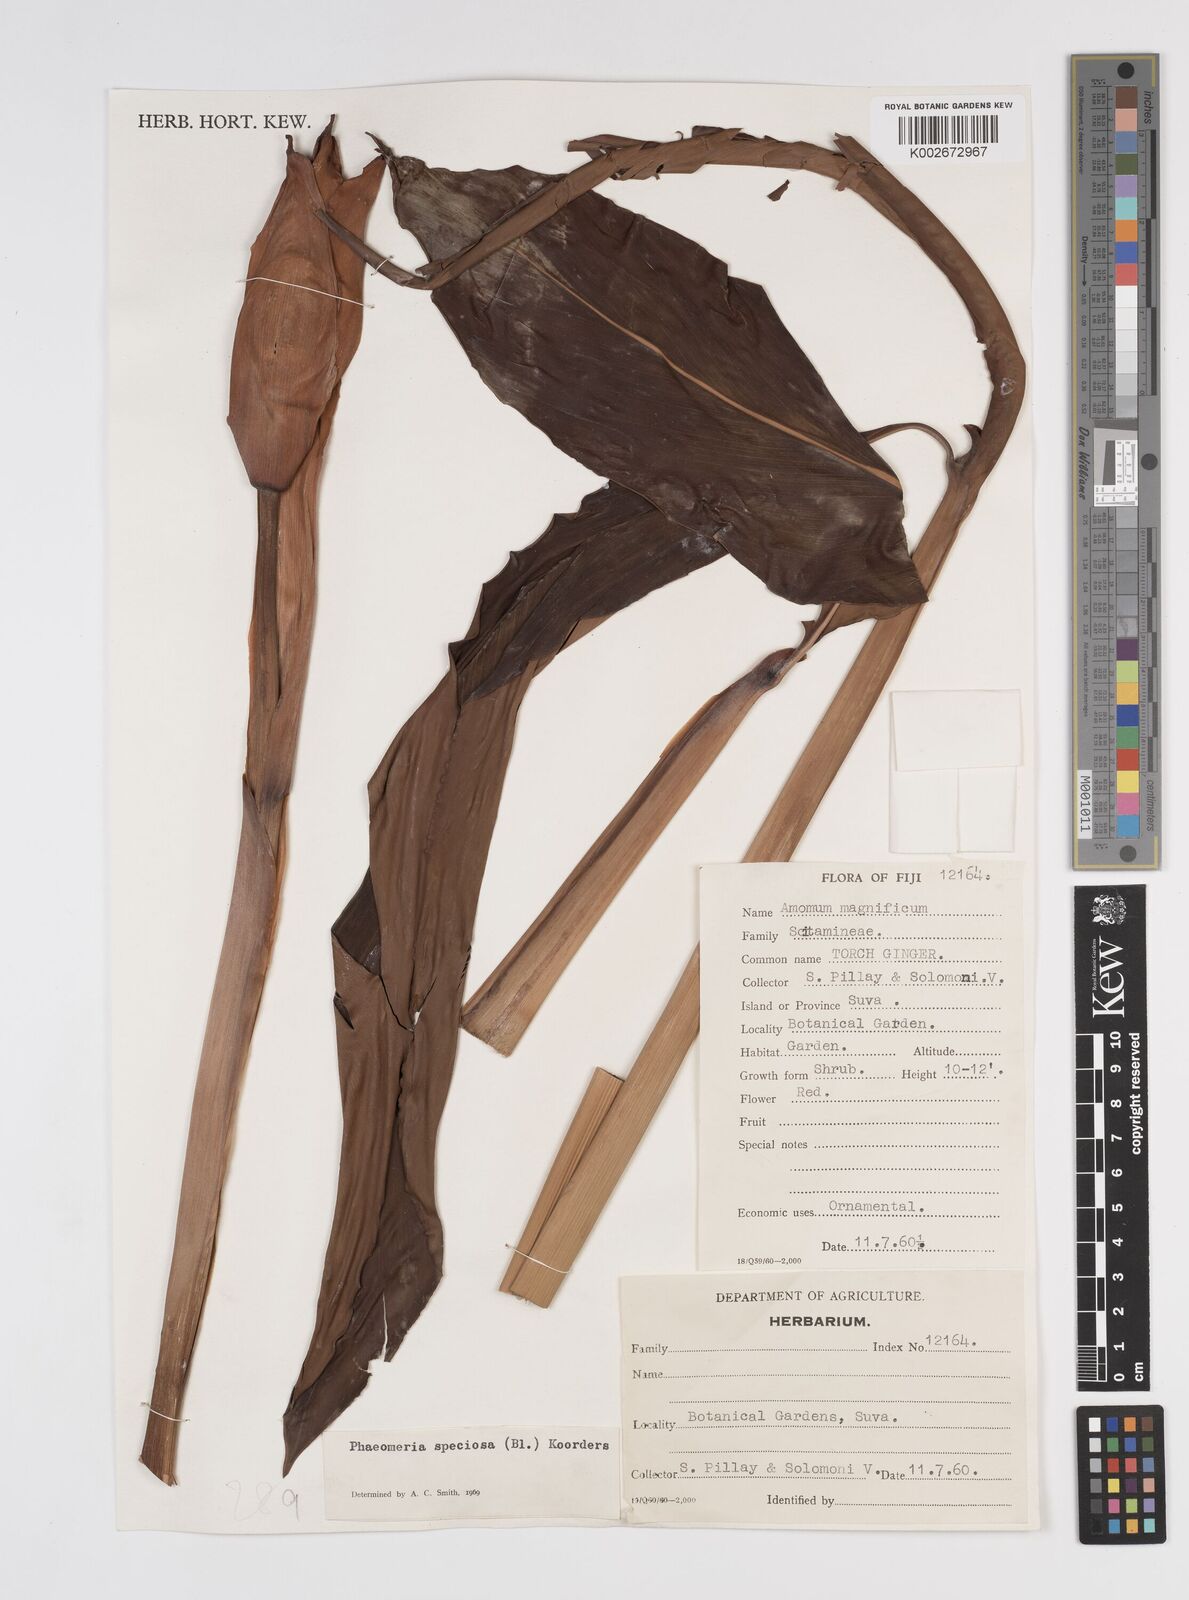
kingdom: Plantae
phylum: Tracheophyta
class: Liliopsida
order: Zingiberales
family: Zingiberaceae
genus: Etlingera
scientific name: Etlingera elatior
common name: Philippine waxflower
